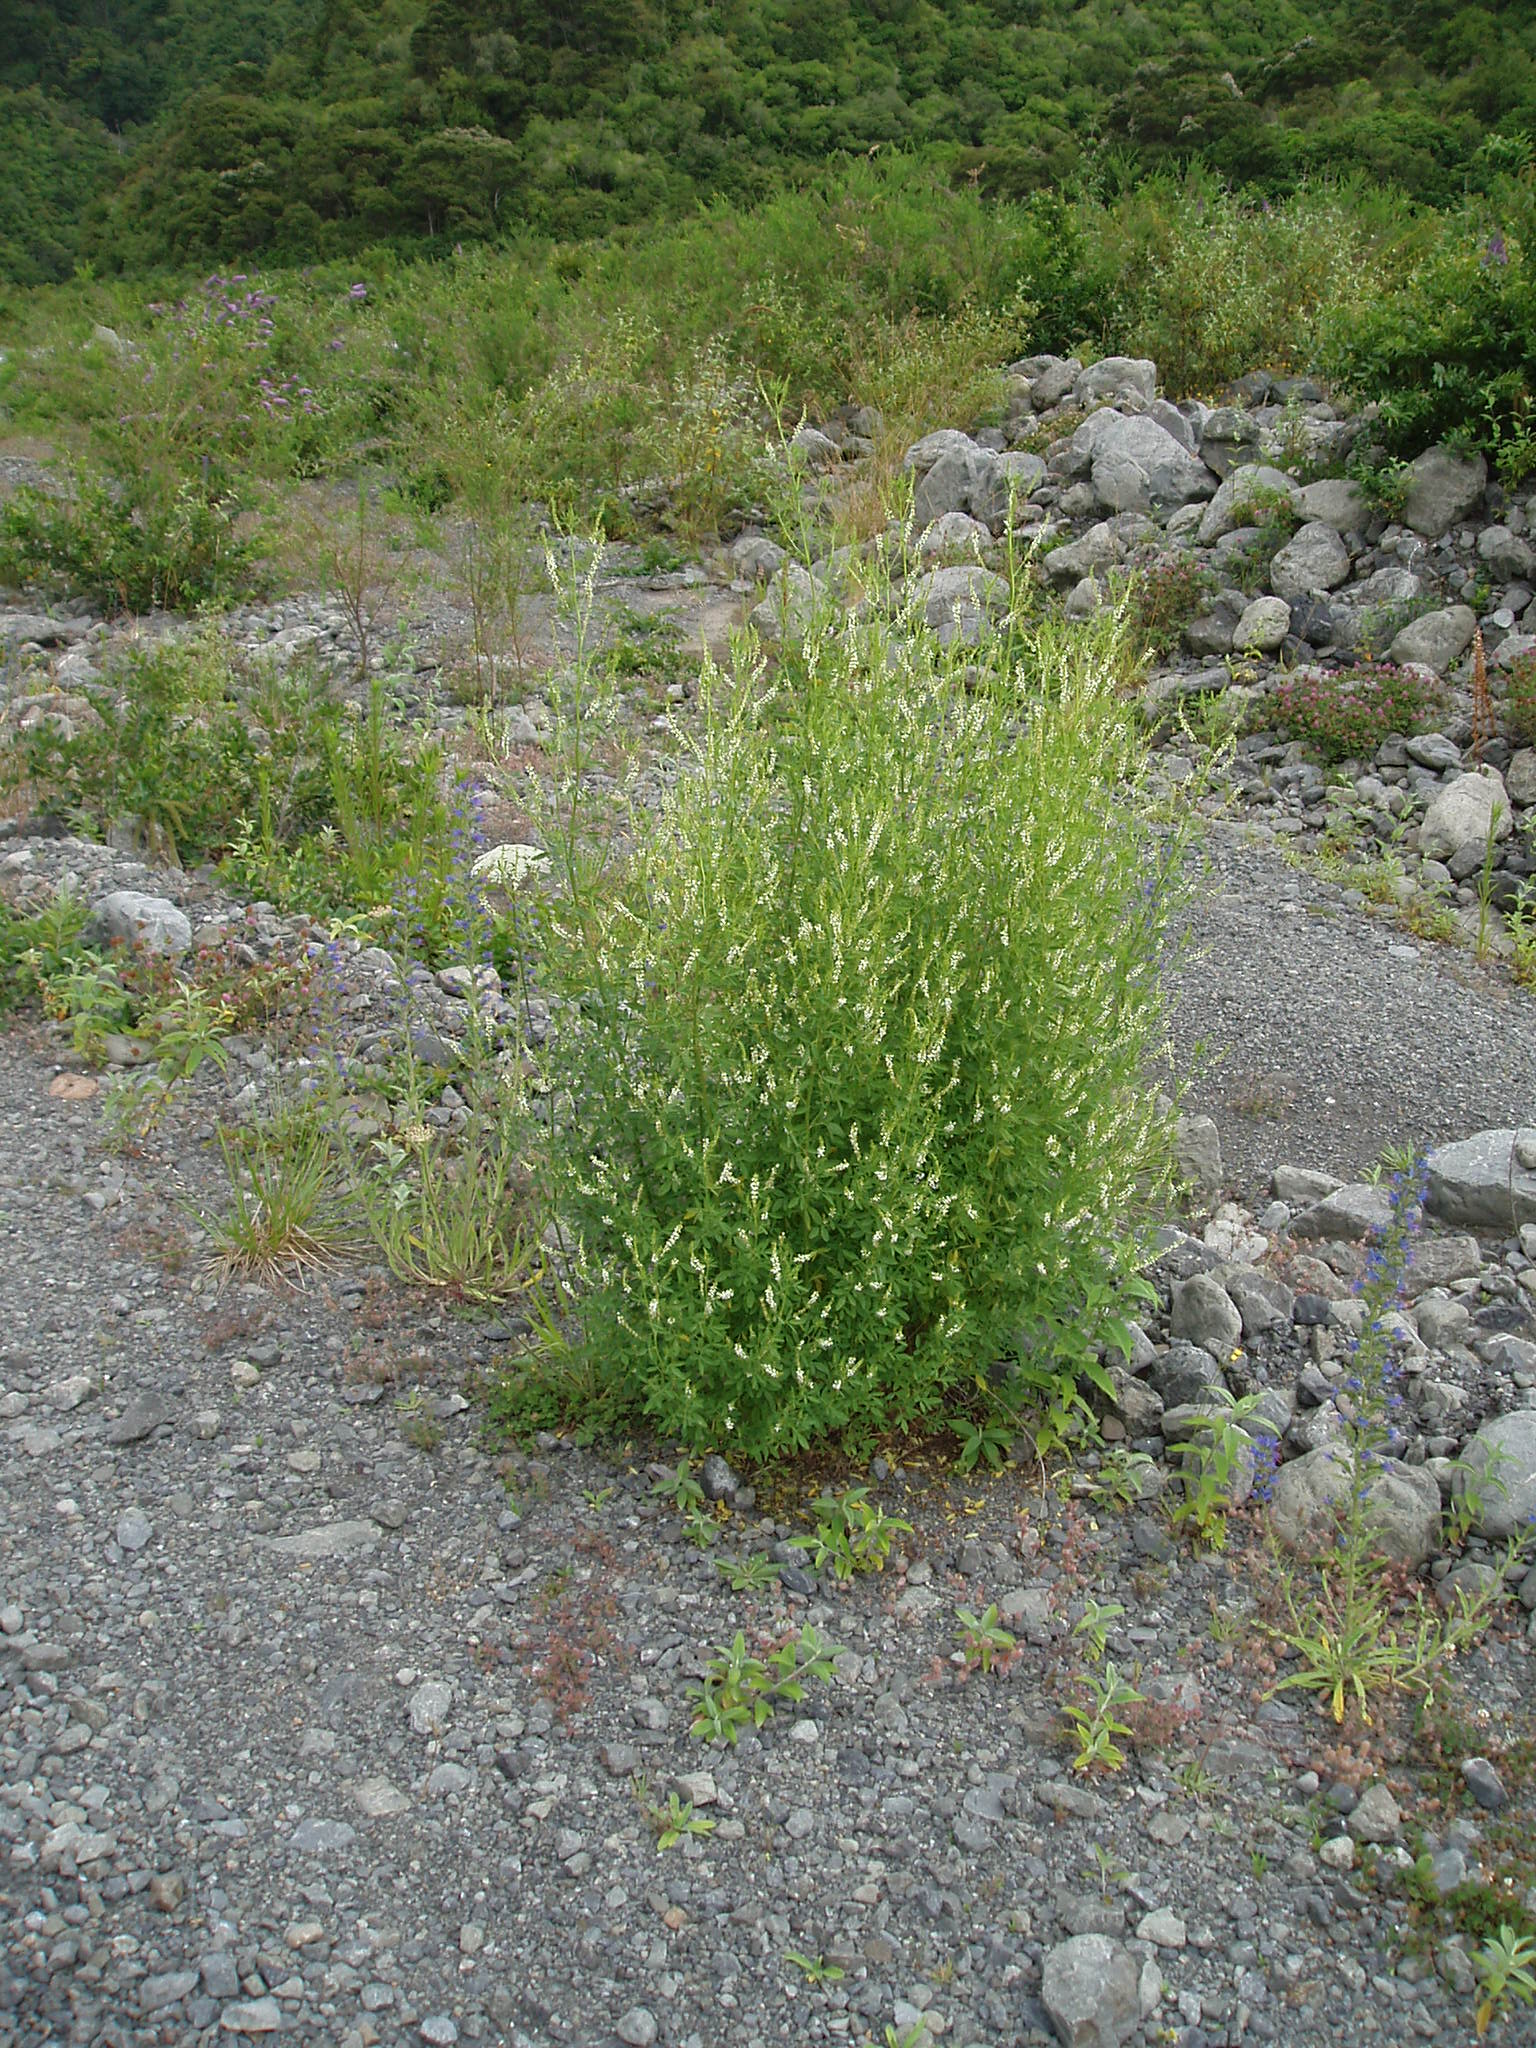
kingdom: Plantae
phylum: Tracheophyta
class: Magnoliopsida
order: Fabales
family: Fabaceae
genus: Melilotus
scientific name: Melilotus albus
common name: White melilot
